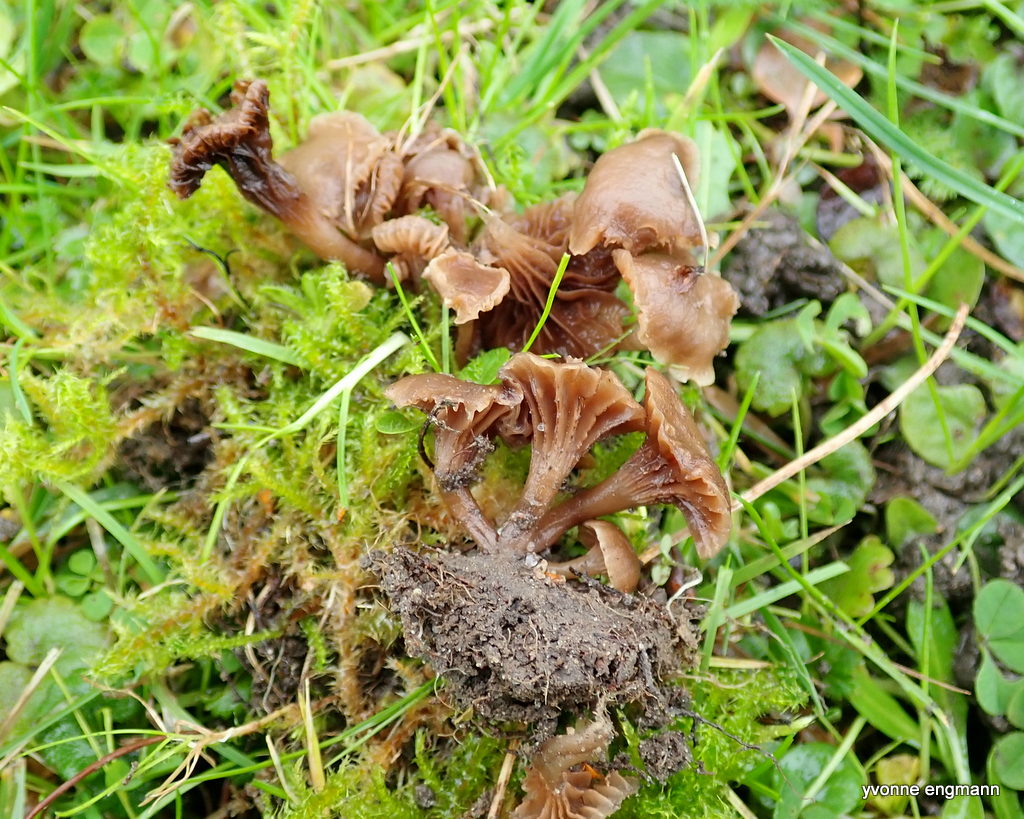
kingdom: Fungi
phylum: Basidiomycota
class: Agaricomycetes
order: Agaricales
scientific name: Agaricales
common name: champignonordenen
